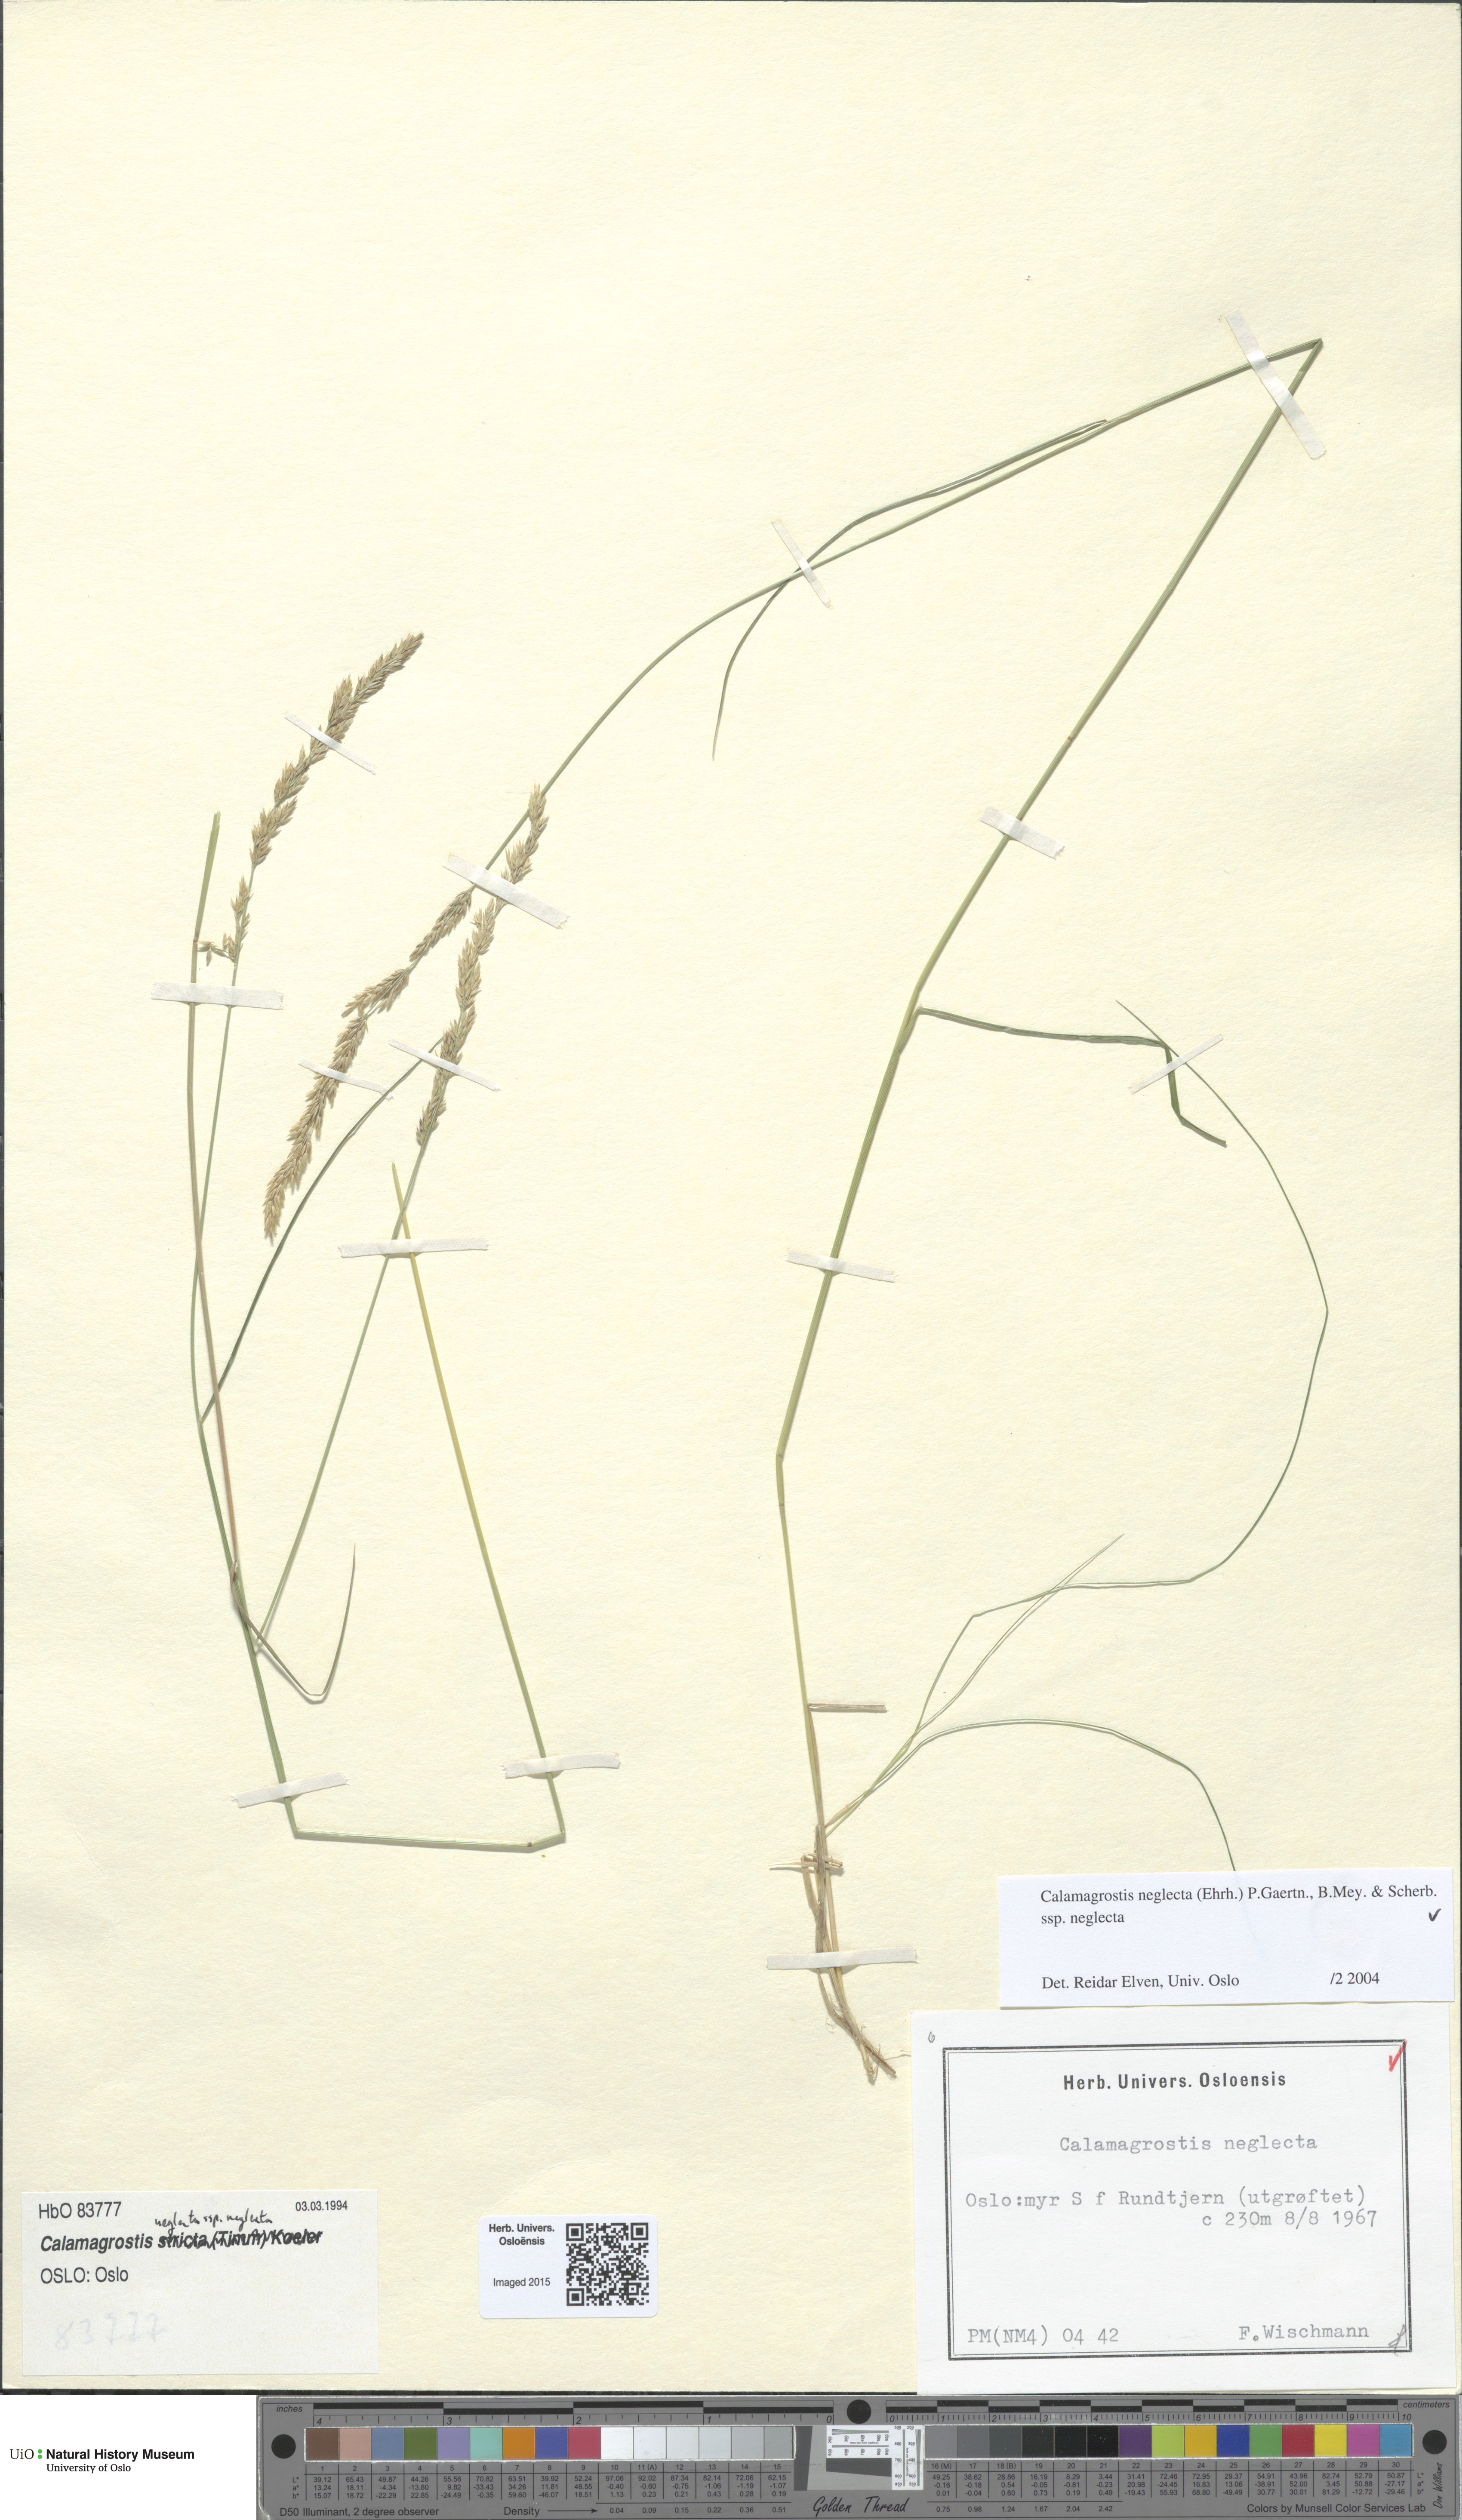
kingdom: Plantae
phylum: Tracheophyta
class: Liliopsida
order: Poales
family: Poaceae
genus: Achnatherum
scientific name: Achnatherum calamagrostis
